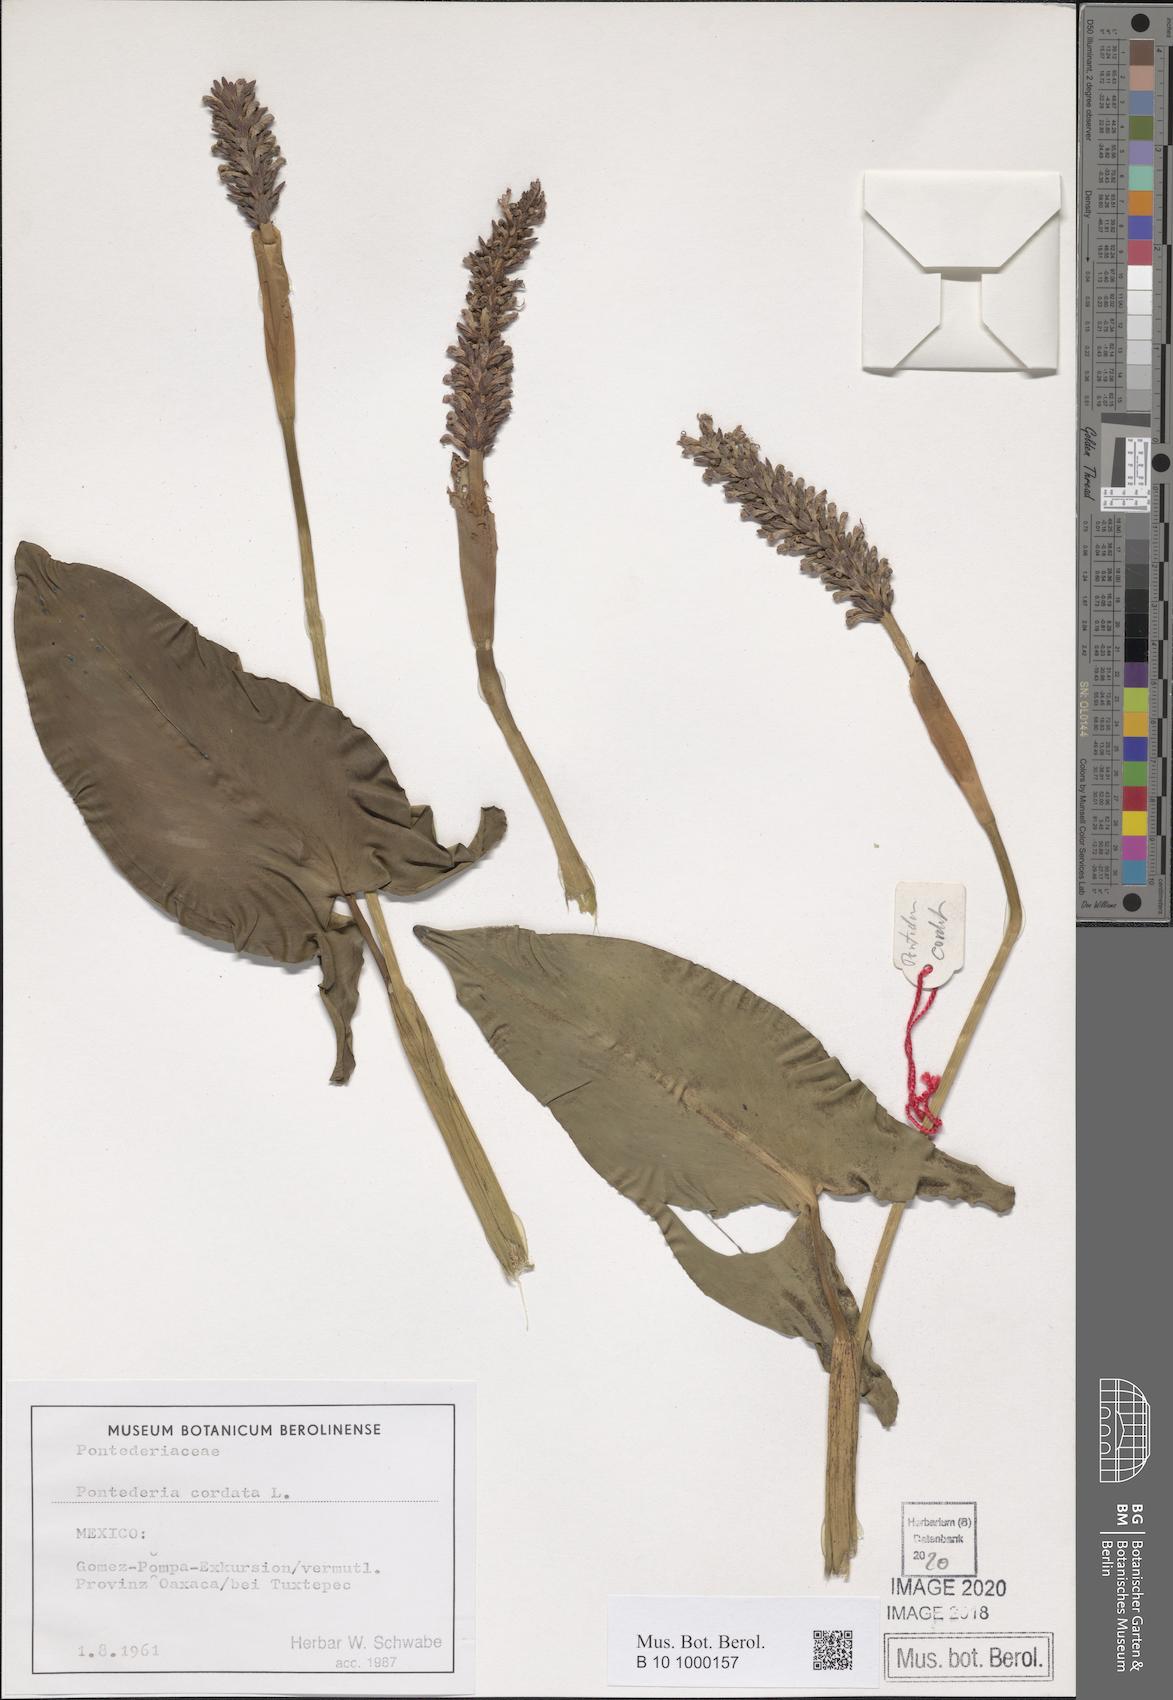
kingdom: Plantae
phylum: Tracheophyta
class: Liliopsida
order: Commelinales
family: Pontederiaceae
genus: Pontederia
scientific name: Pontederia cordata
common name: Pickerelweed
